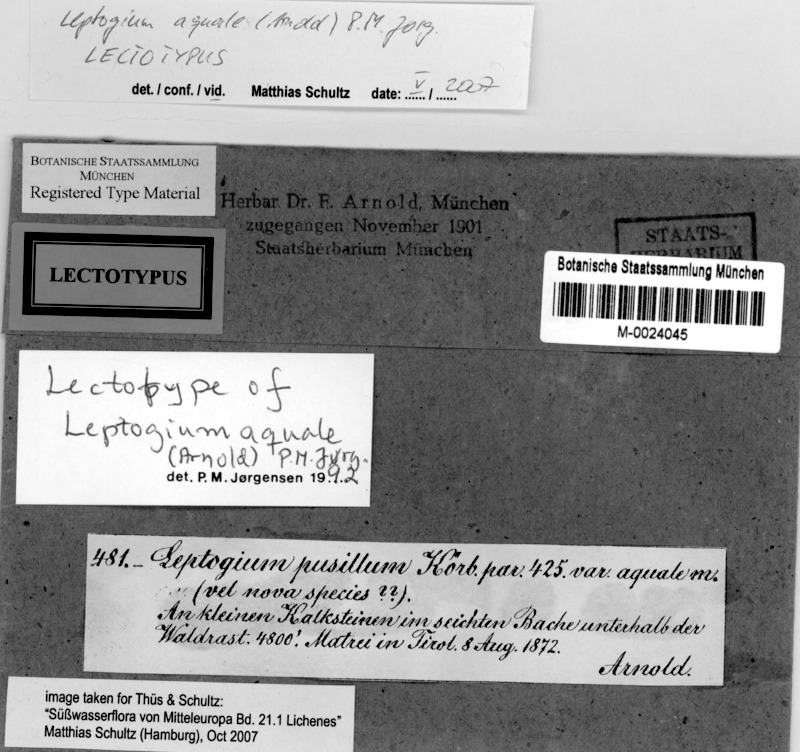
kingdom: Fungi
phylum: Ascomycota
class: Lecanoromycetes
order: Peltigerales
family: Collemataceae
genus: Scytinium
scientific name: Scytinium aquale
